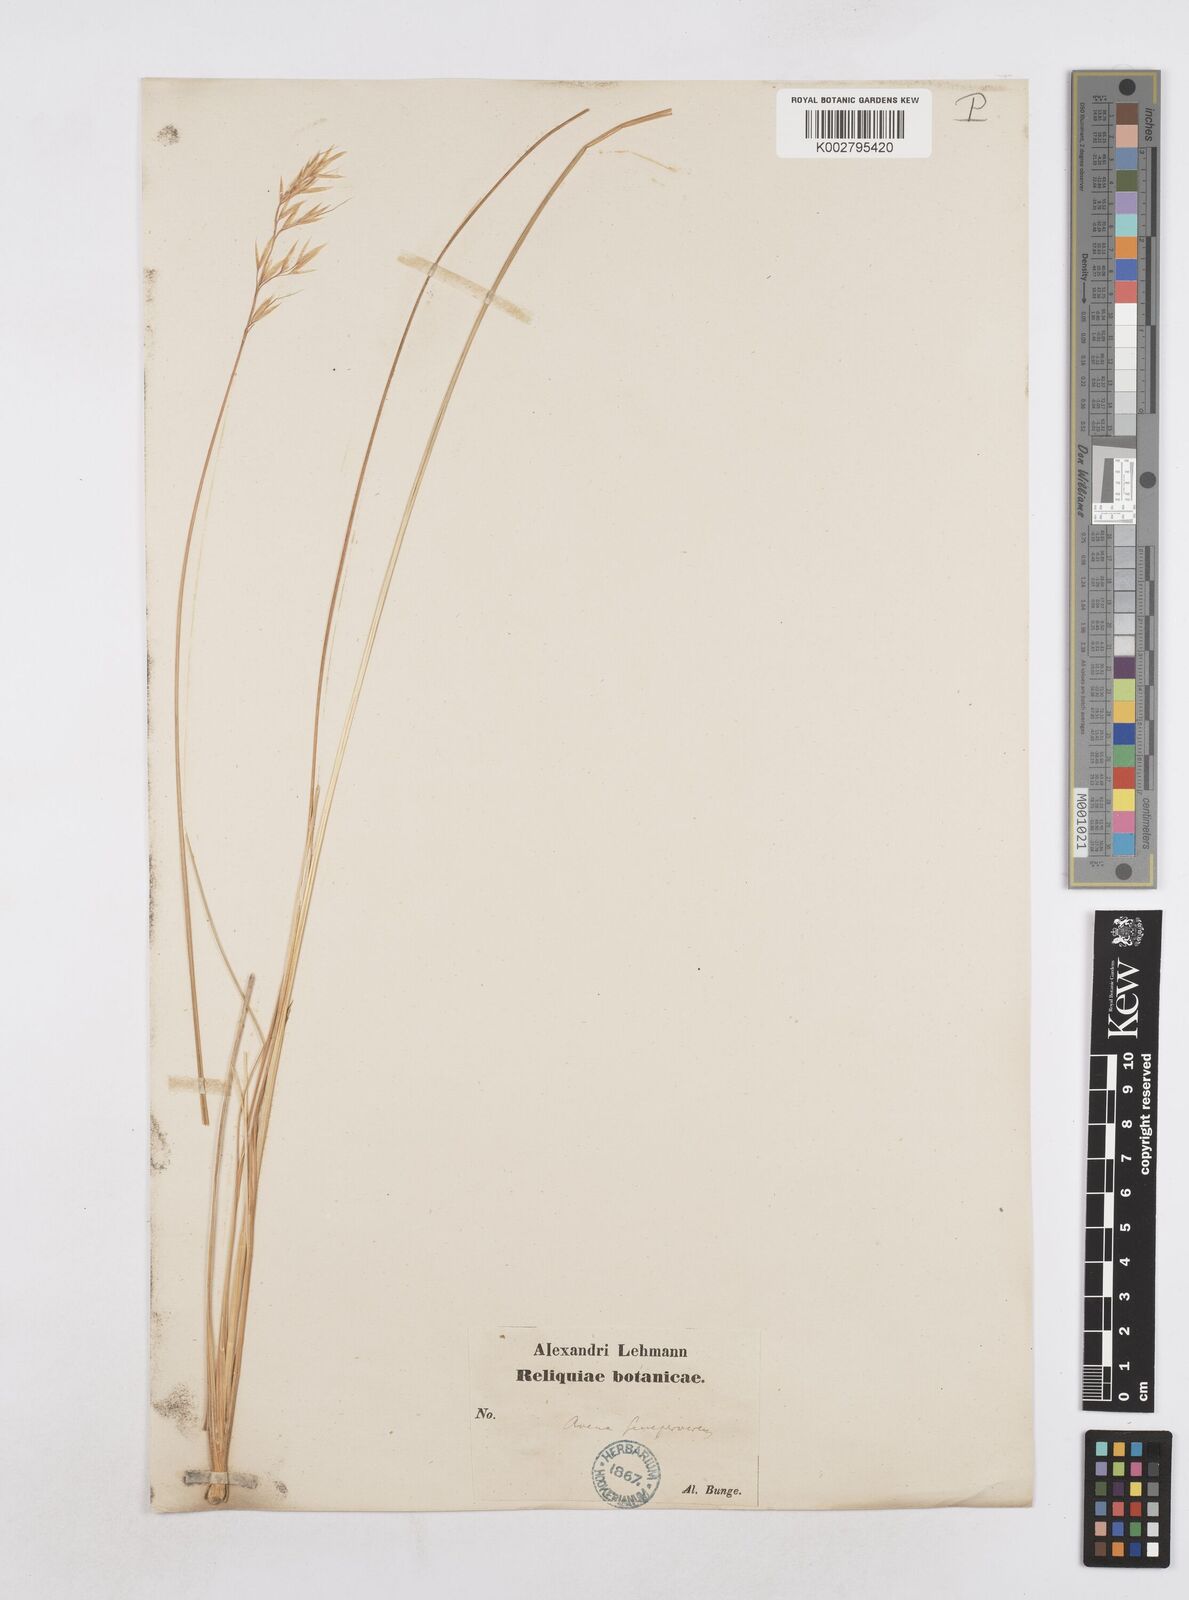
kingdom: Plantae
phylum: Tracheophyta
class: Liliopsida
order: Poales
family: Poaceae
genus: Helictotrichon
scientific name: Helictotrichon sempervirens
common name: Blue oat-grass
